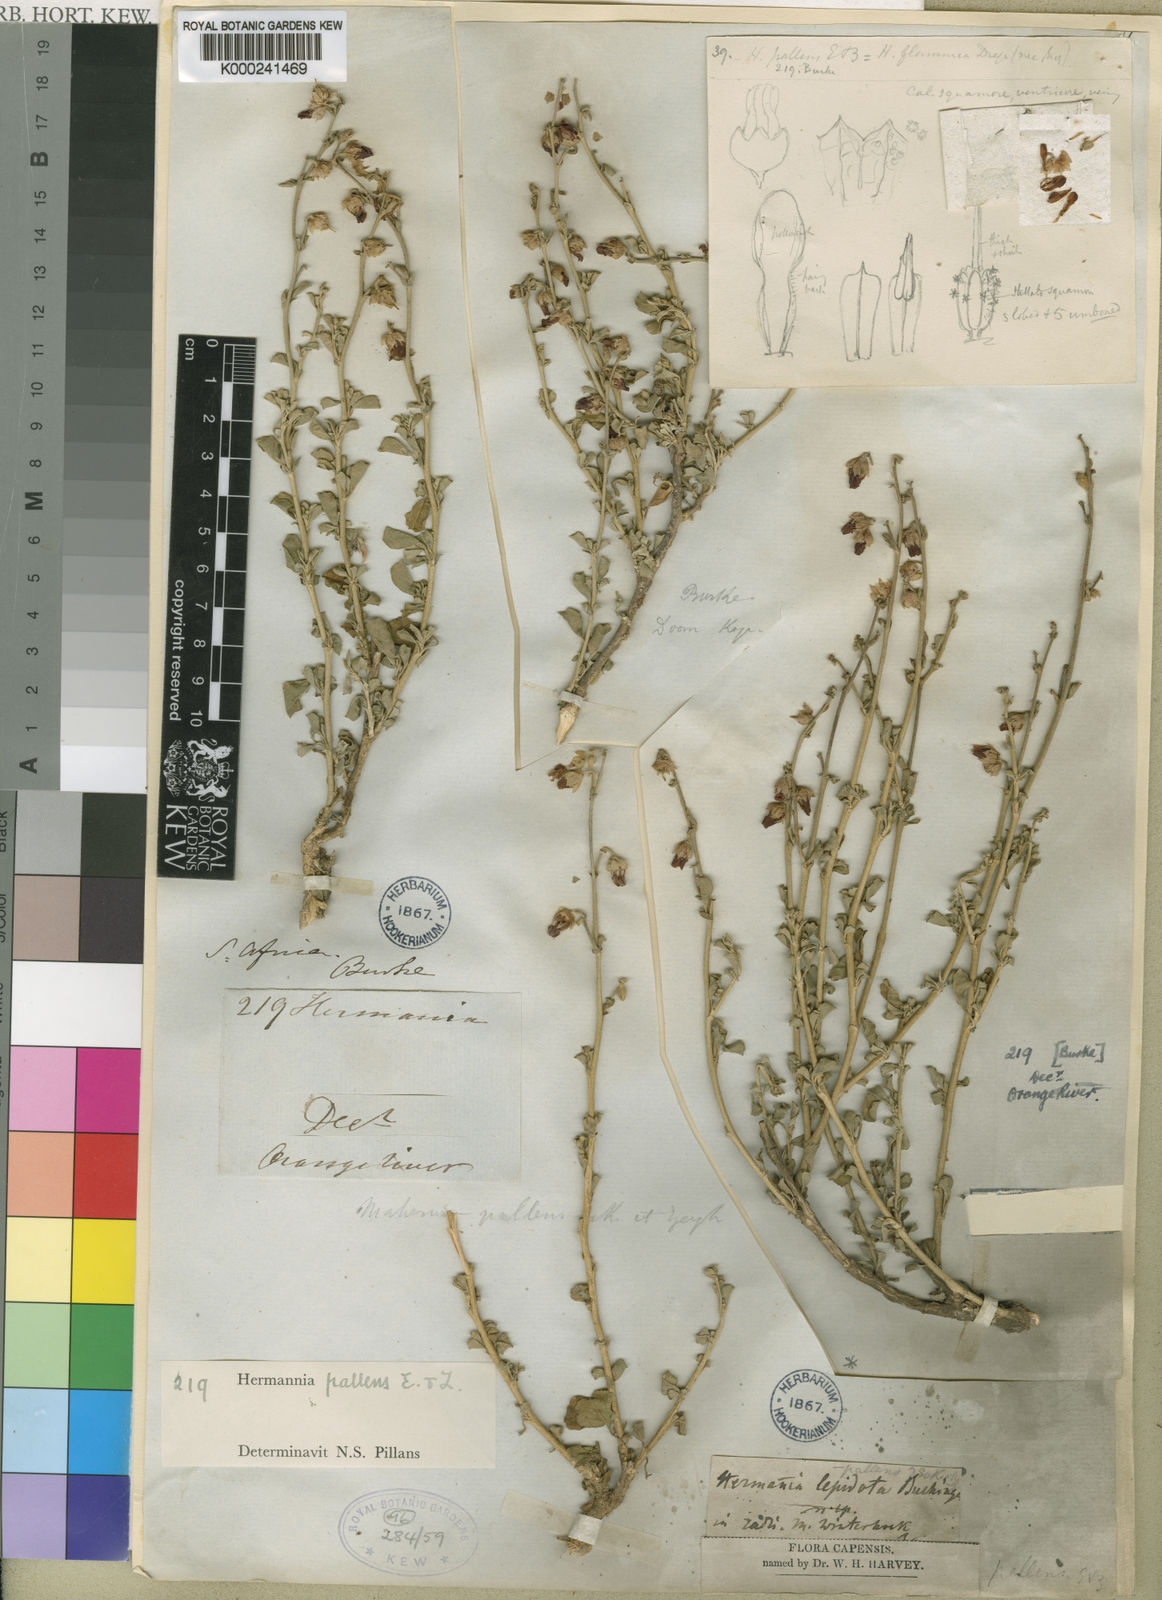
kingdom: Plantae
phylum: Tracheophyta
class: Magnoliopsida
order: Malvales
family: Malvaceae
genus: Hermannia
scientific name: Hermannia cuneifolia
